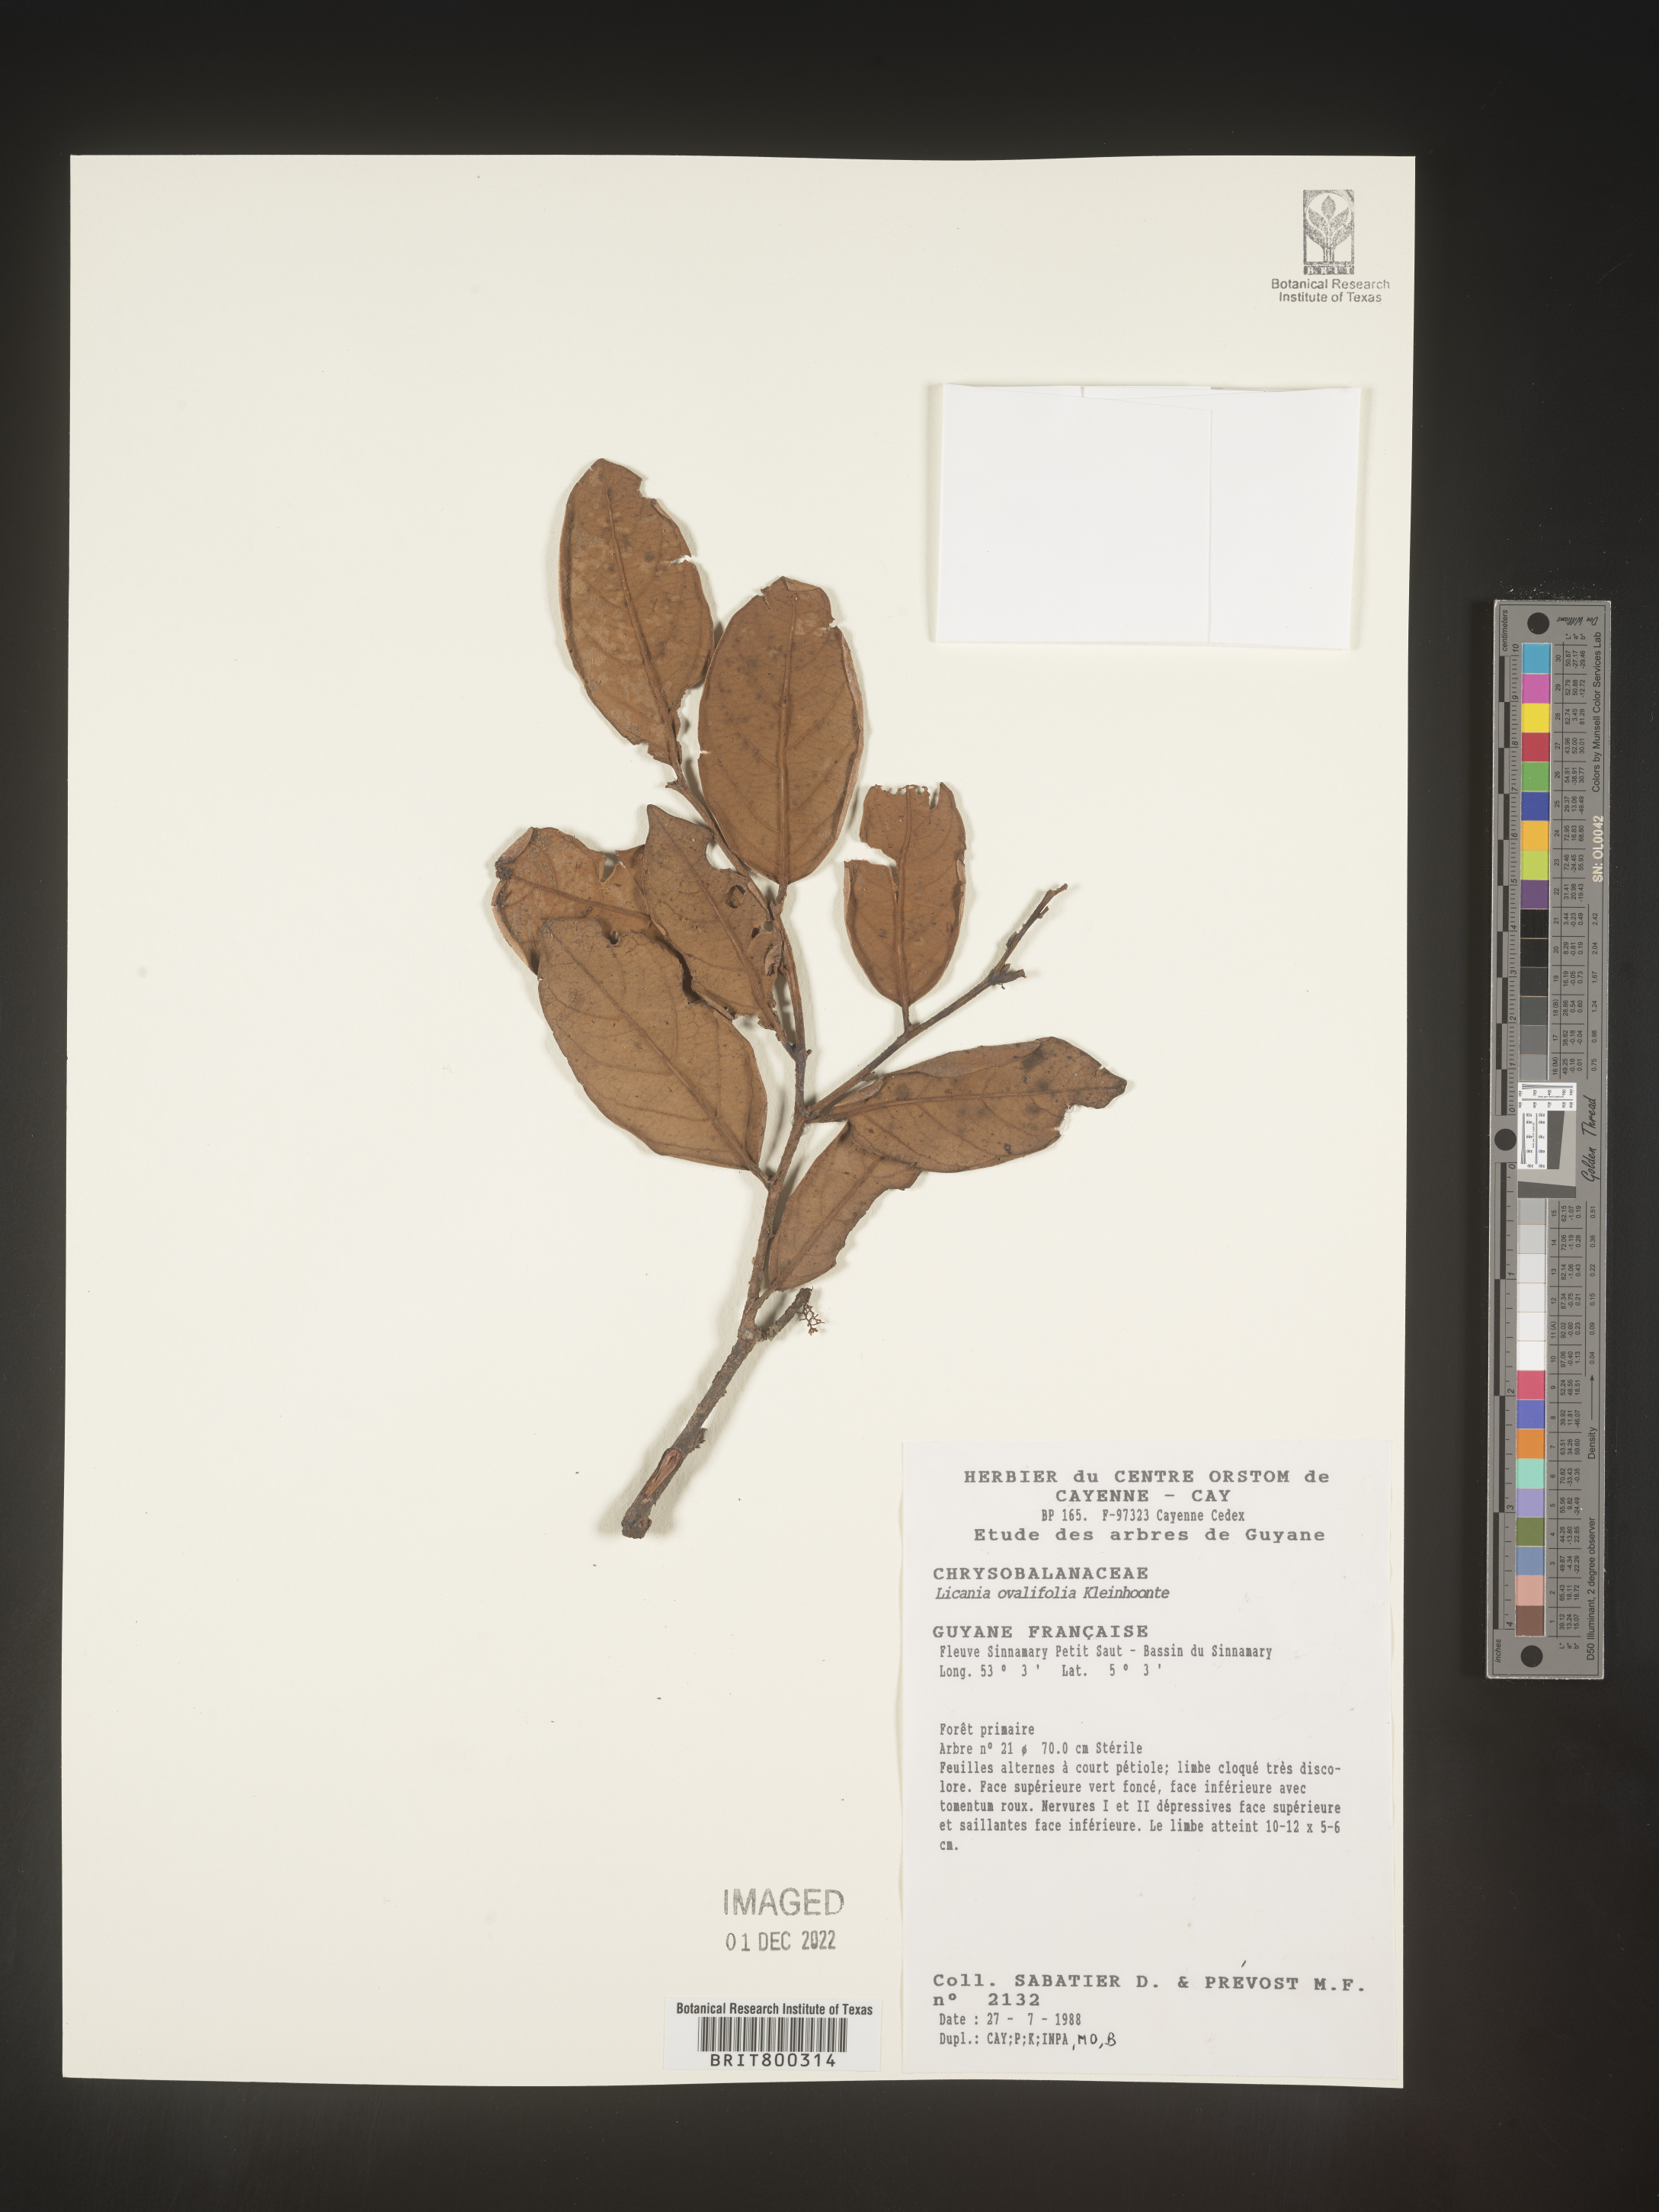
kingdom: Plantae
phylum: Tracheophyta
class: Magnoliopsida
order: Malpighiales
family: Chrysobalanaceae
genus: Licania
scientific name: Licania
